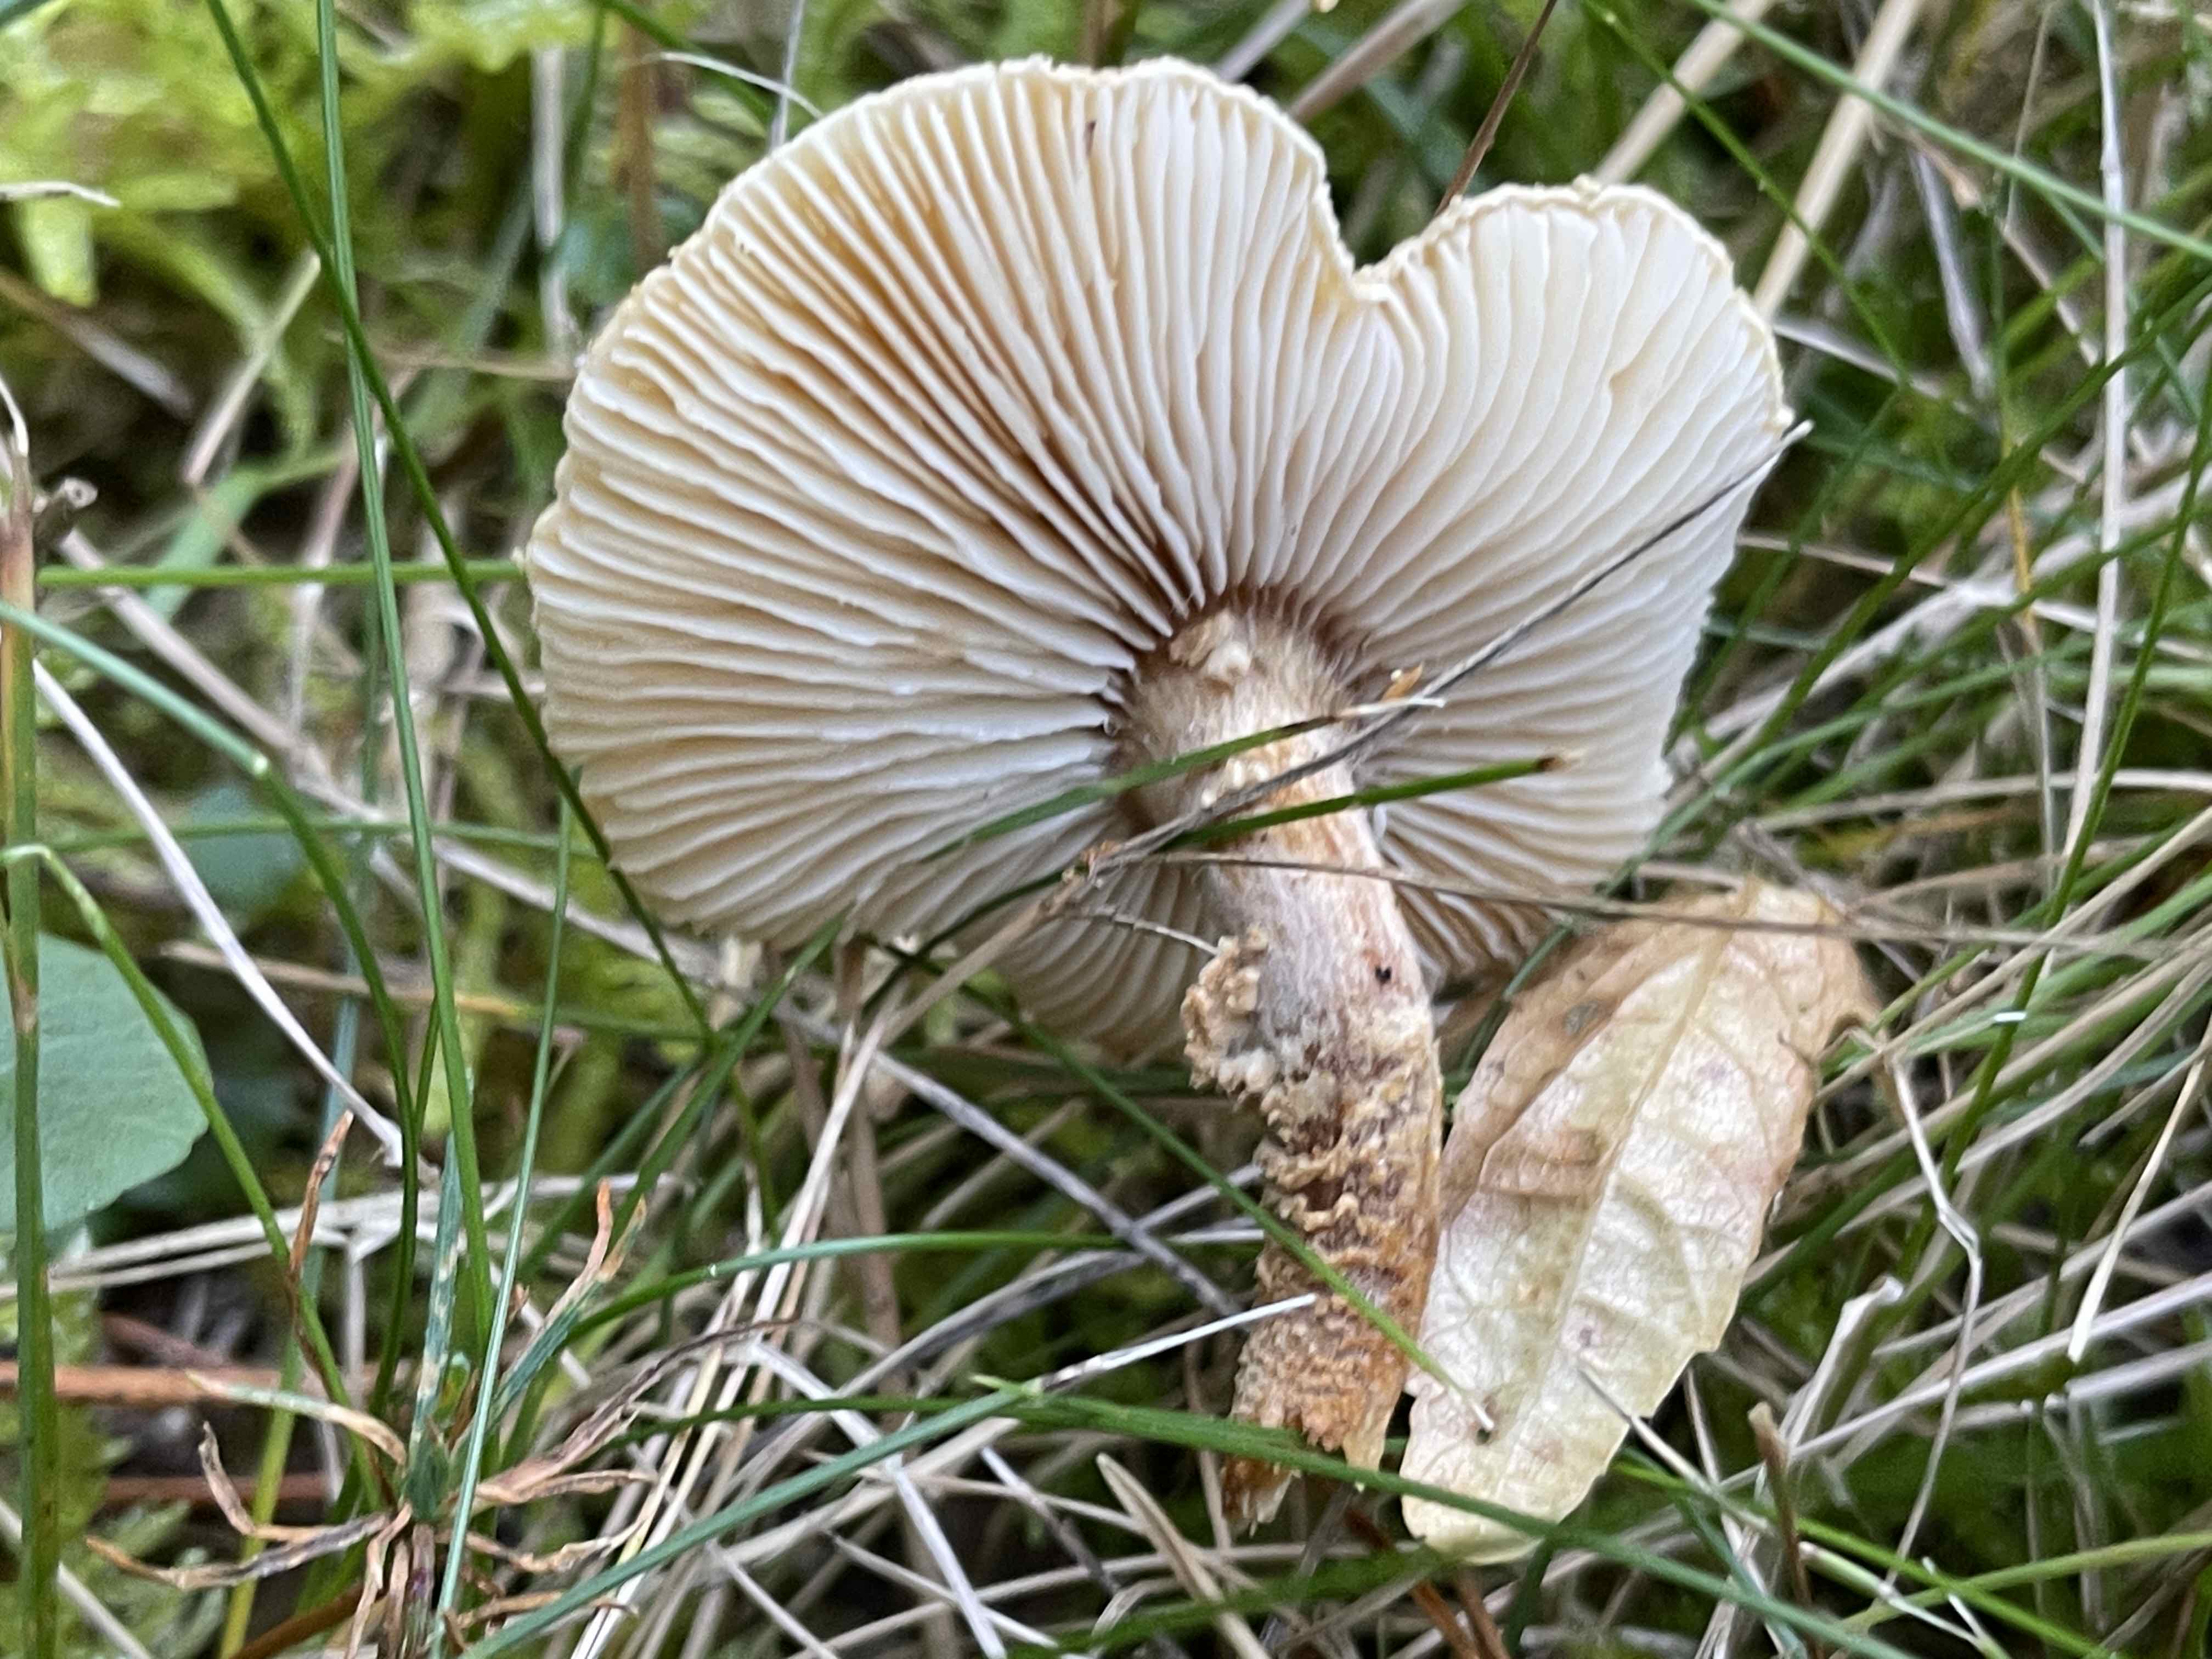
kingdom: Fungi
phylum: Basidiomycota
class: Agaricomycetes
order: Agaricales
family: Tricholomataceae
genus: Cystoderma
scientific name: Cystoderma jasonis
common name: gulkødet grynhat
